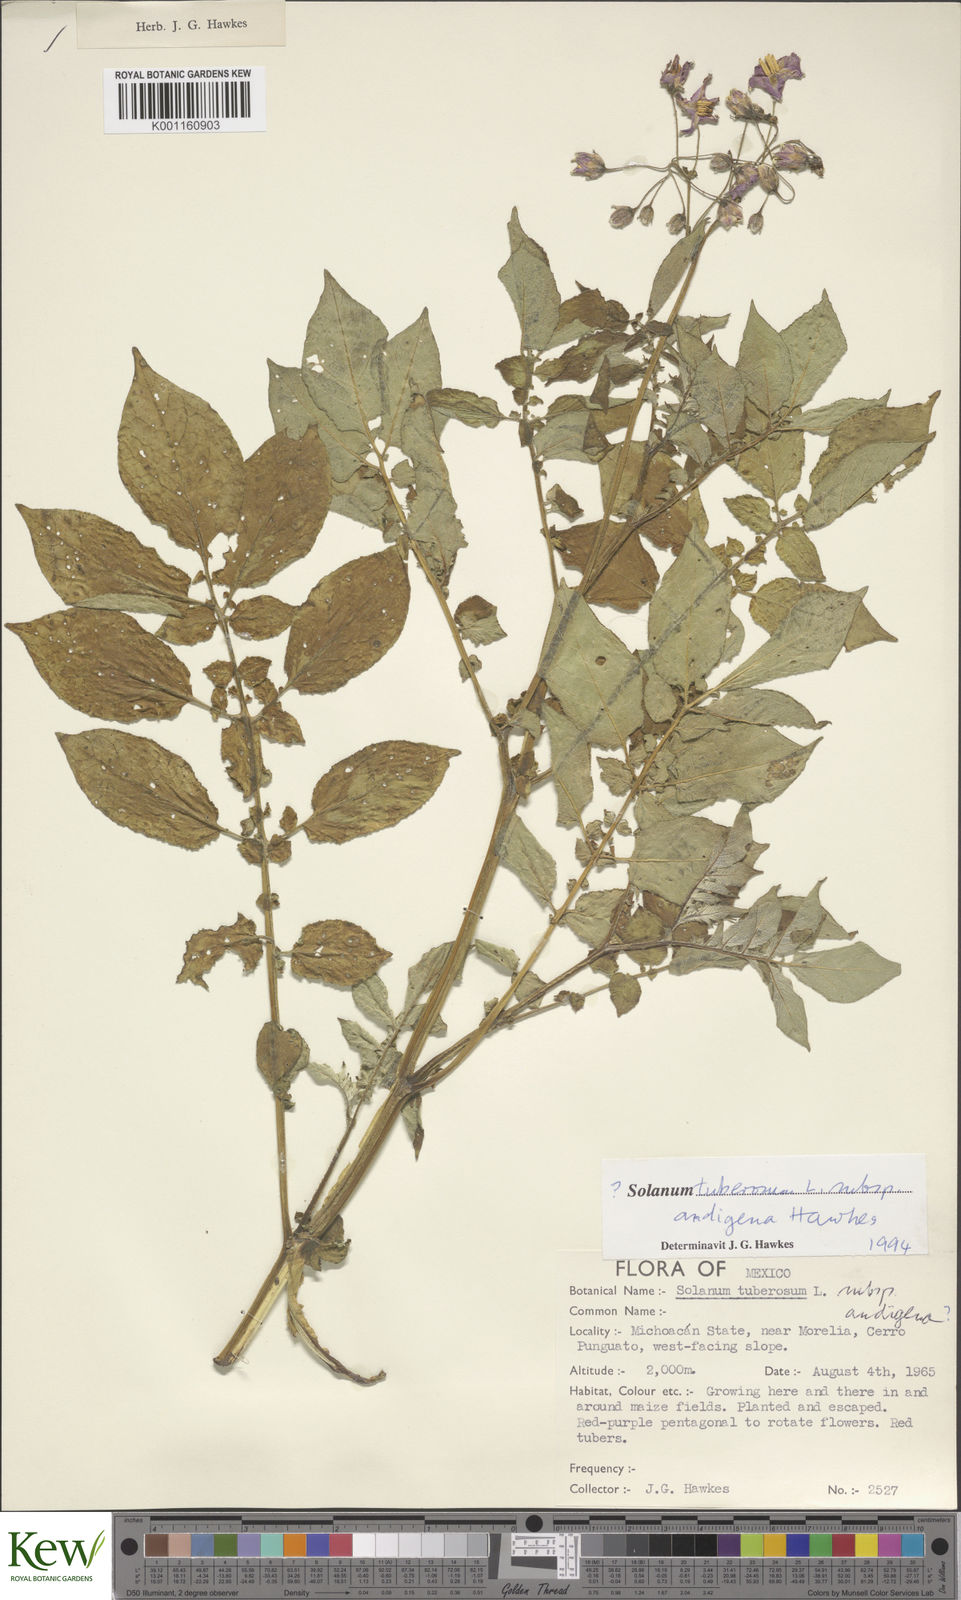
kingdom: Plantae
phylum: Tracheophyta
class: Magnoliopsida
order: Solanales
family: Solanaceae
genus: Solanum
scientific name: Solanum tuberosum
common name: Potato
